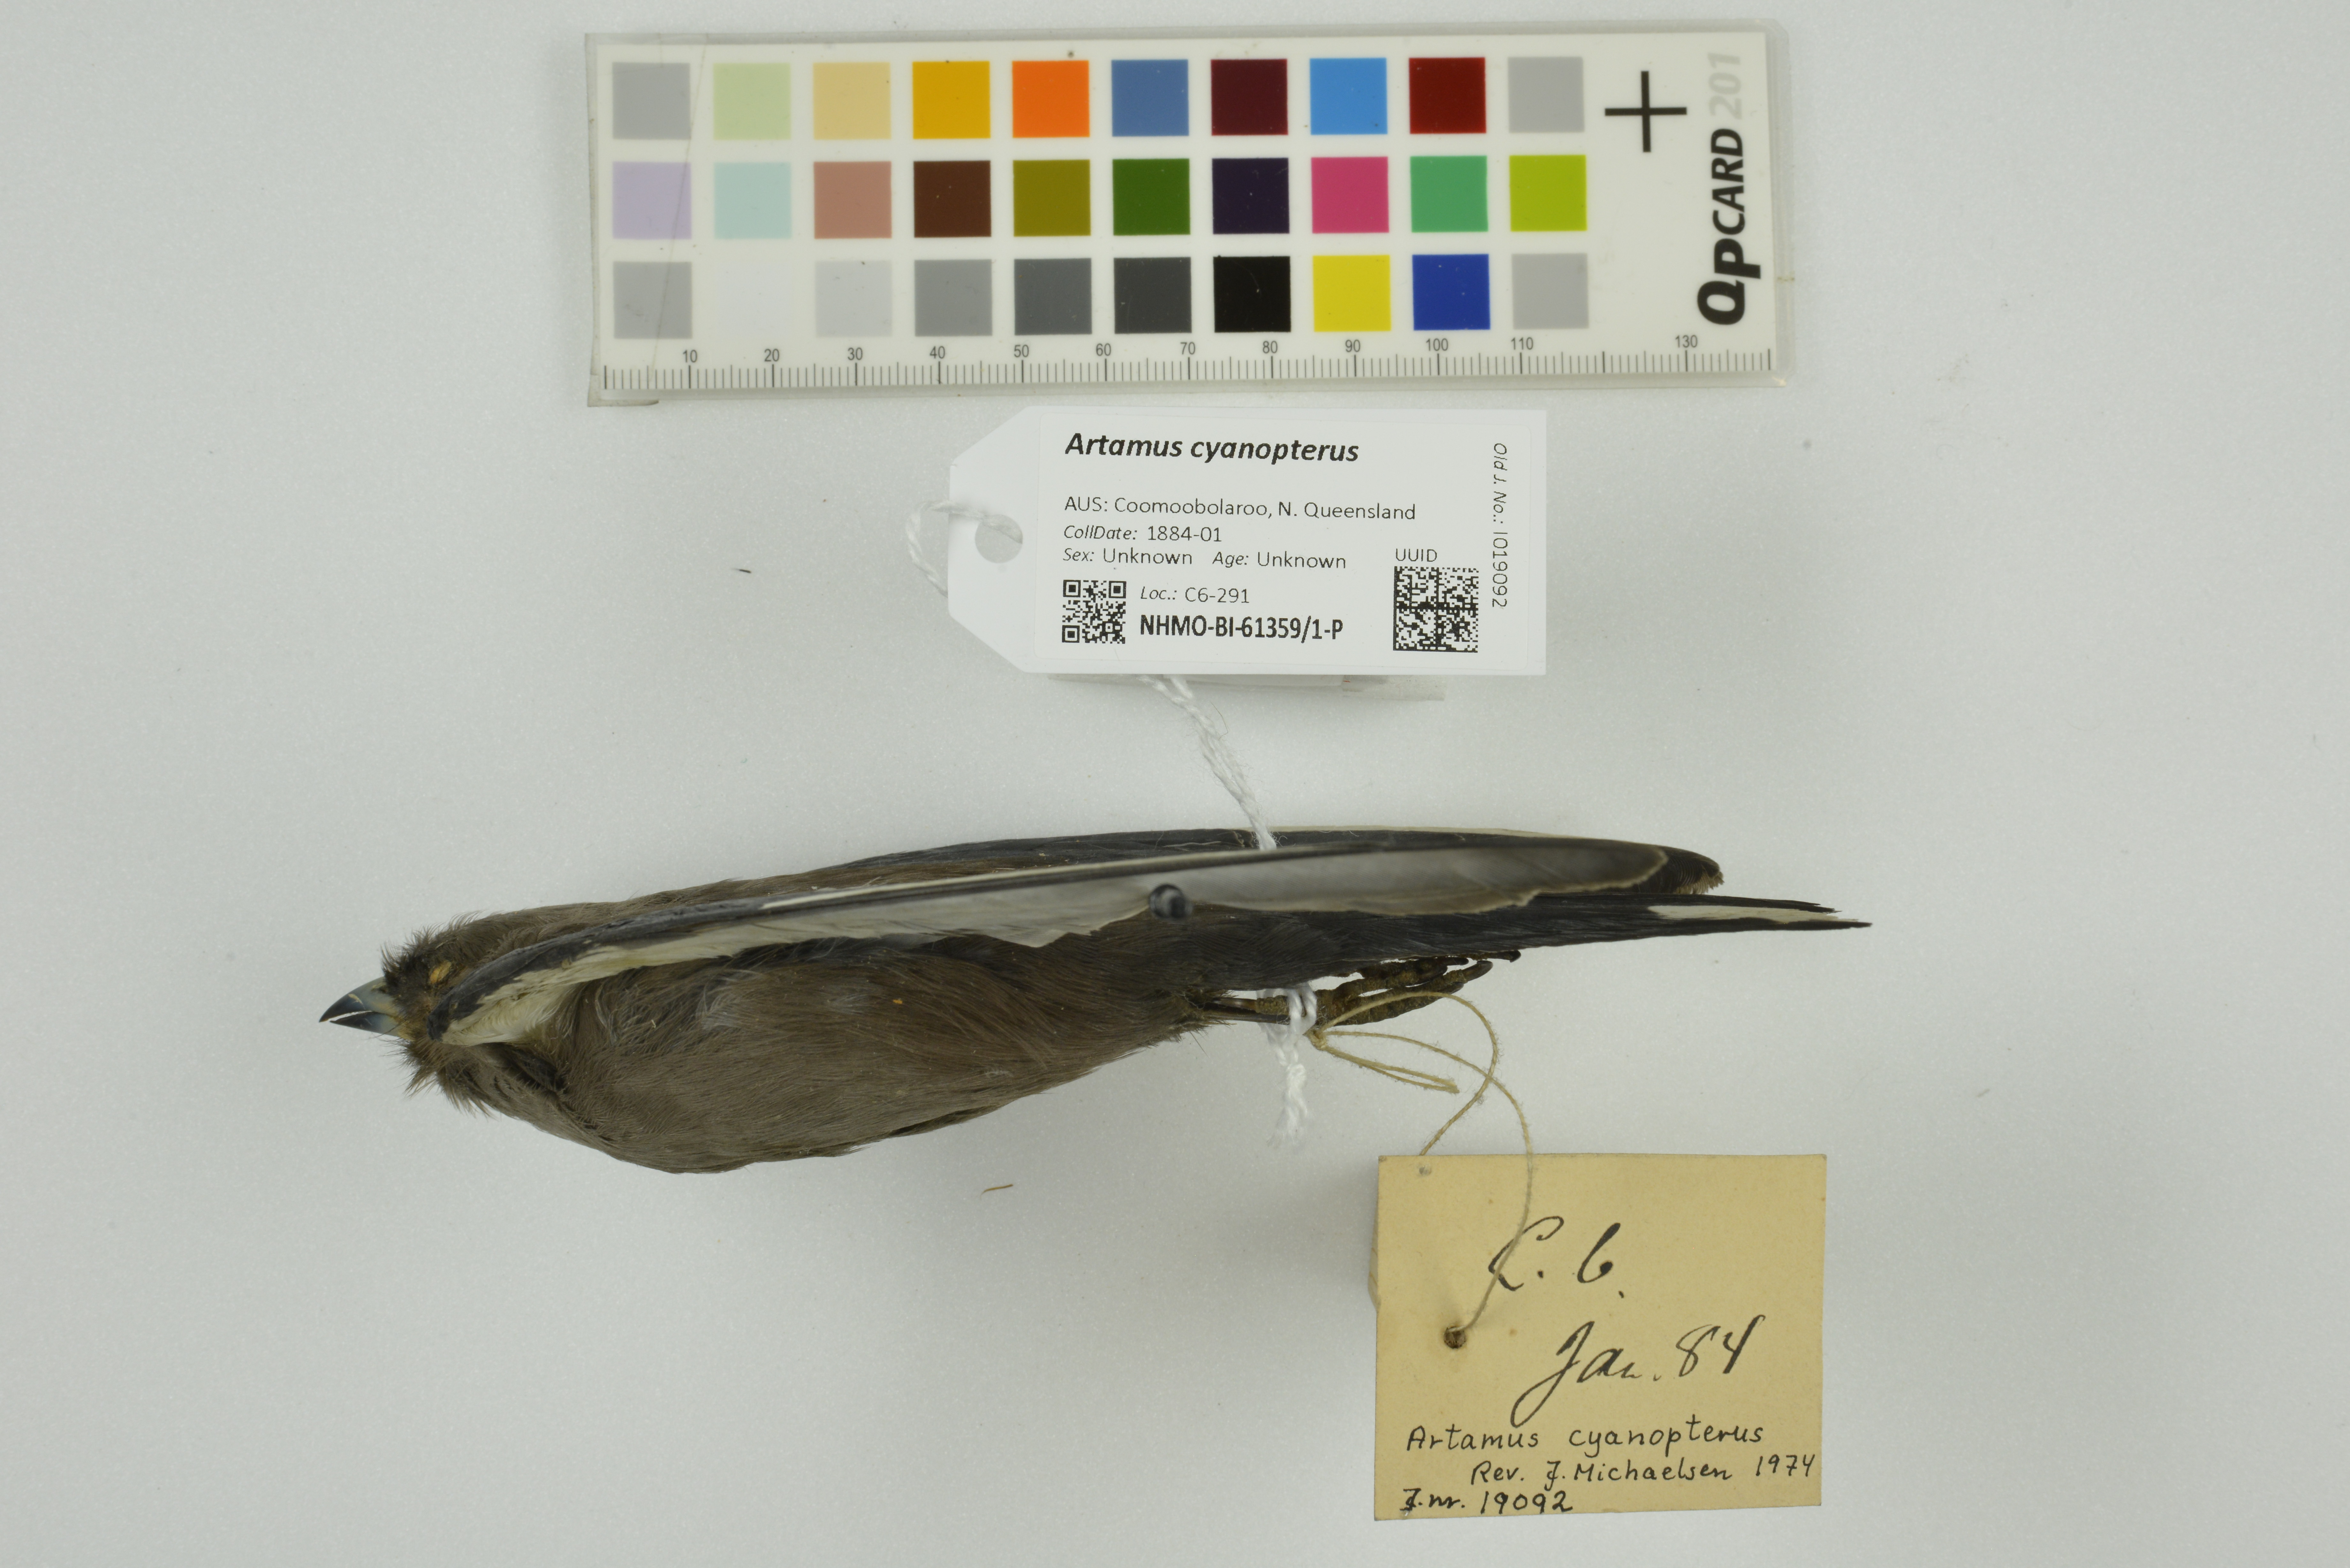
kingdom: Animalia
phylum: Chordata
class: Aves
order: Passeriformes
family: Artamidae
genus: Artamus
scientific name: Artamus cyanopterus
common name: Dusky woodswallow
